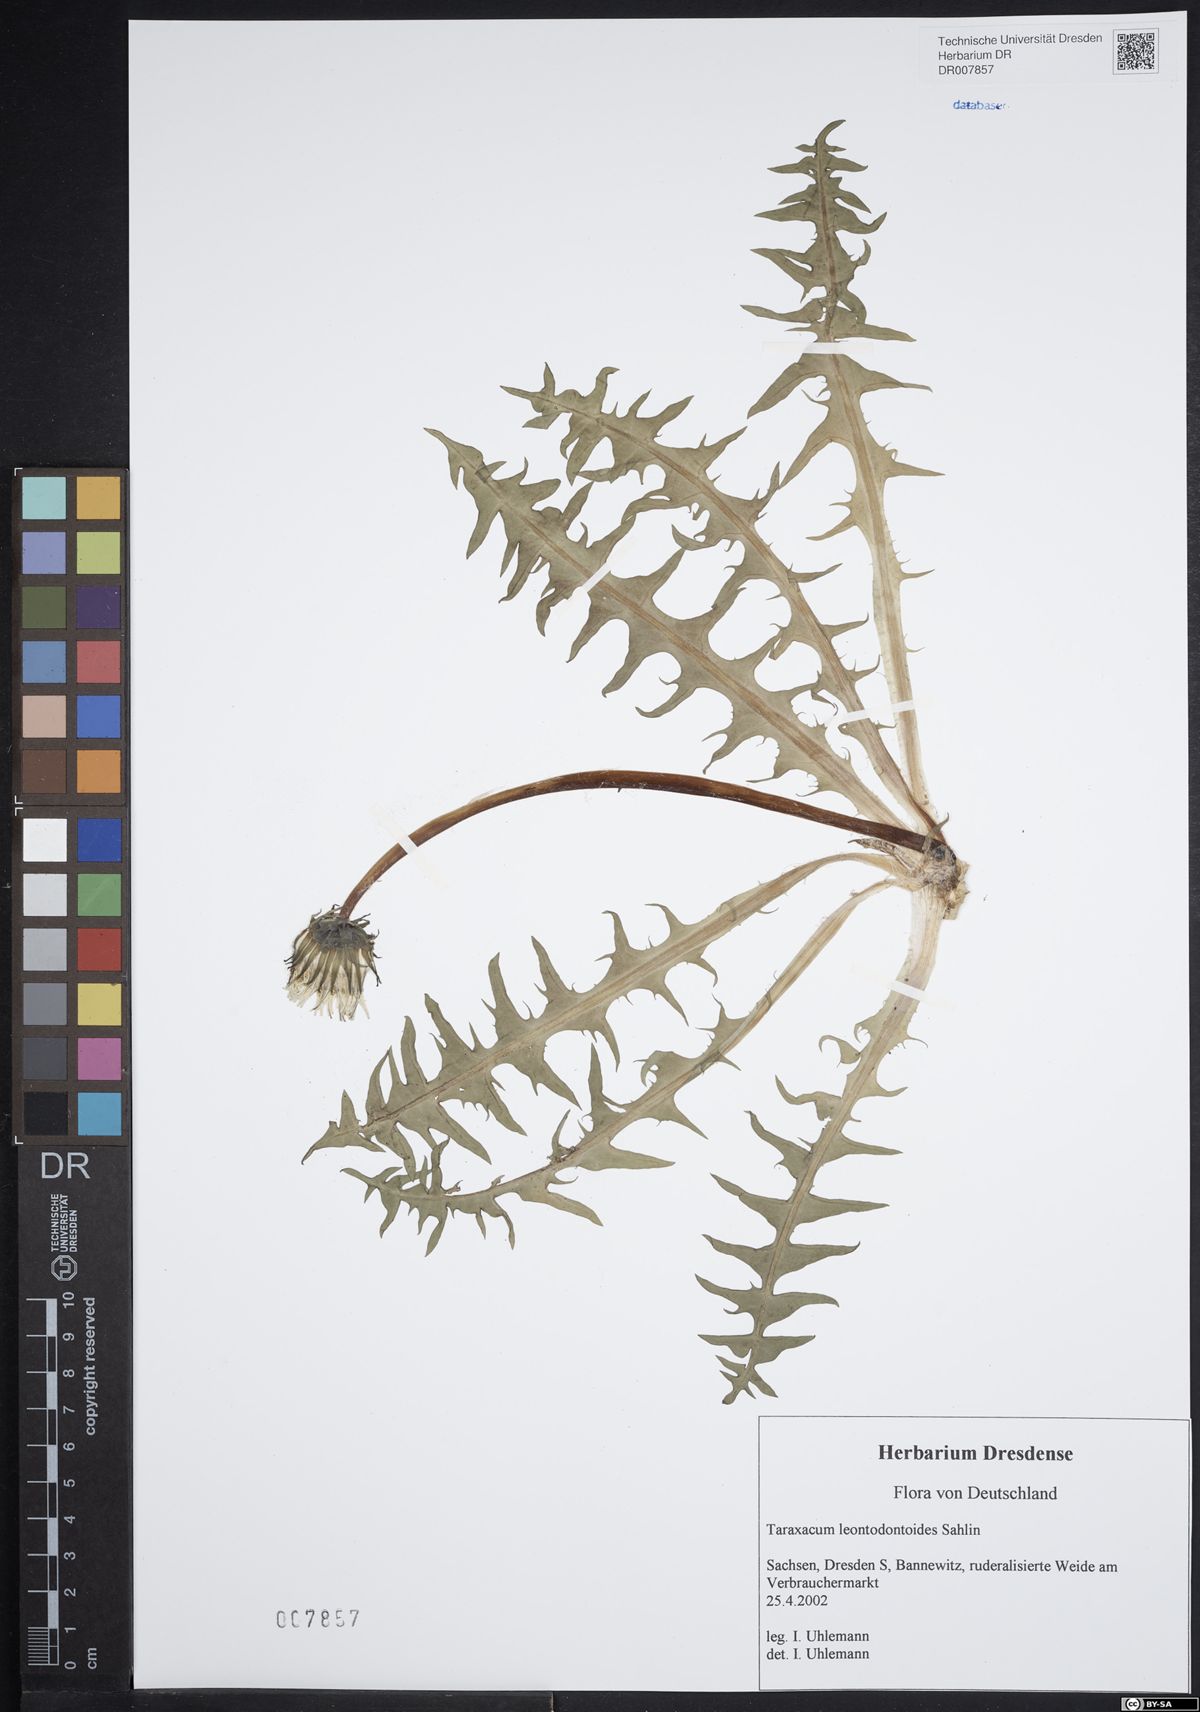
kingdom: Plantae
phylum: Tracheophyta
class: Magnoliopsida
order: Asterales
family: Asteraceae
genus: Taraxacum
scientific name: Taraxacum gentile
